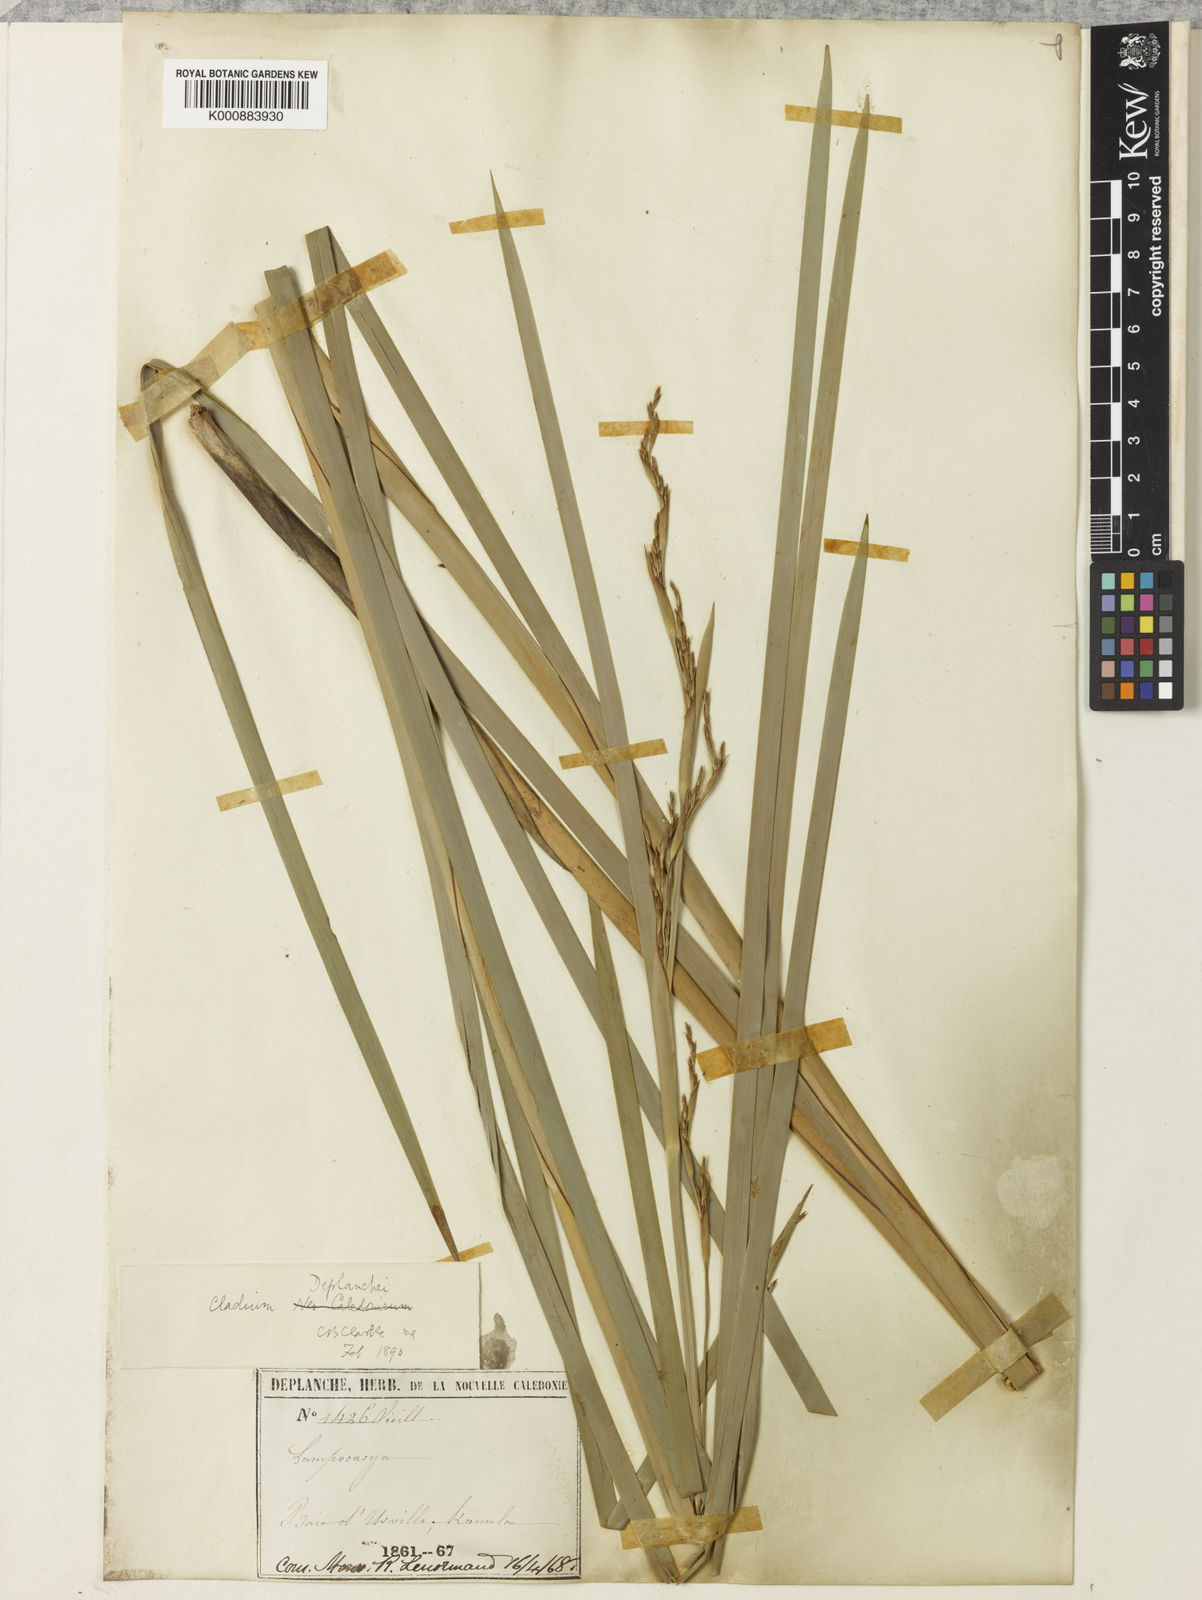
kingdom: Plantae
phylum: Tracheophyta
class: Liliopsida
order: Poales
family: Cyperaceae
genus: Machaerina
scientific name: Machaerina deplanchei
